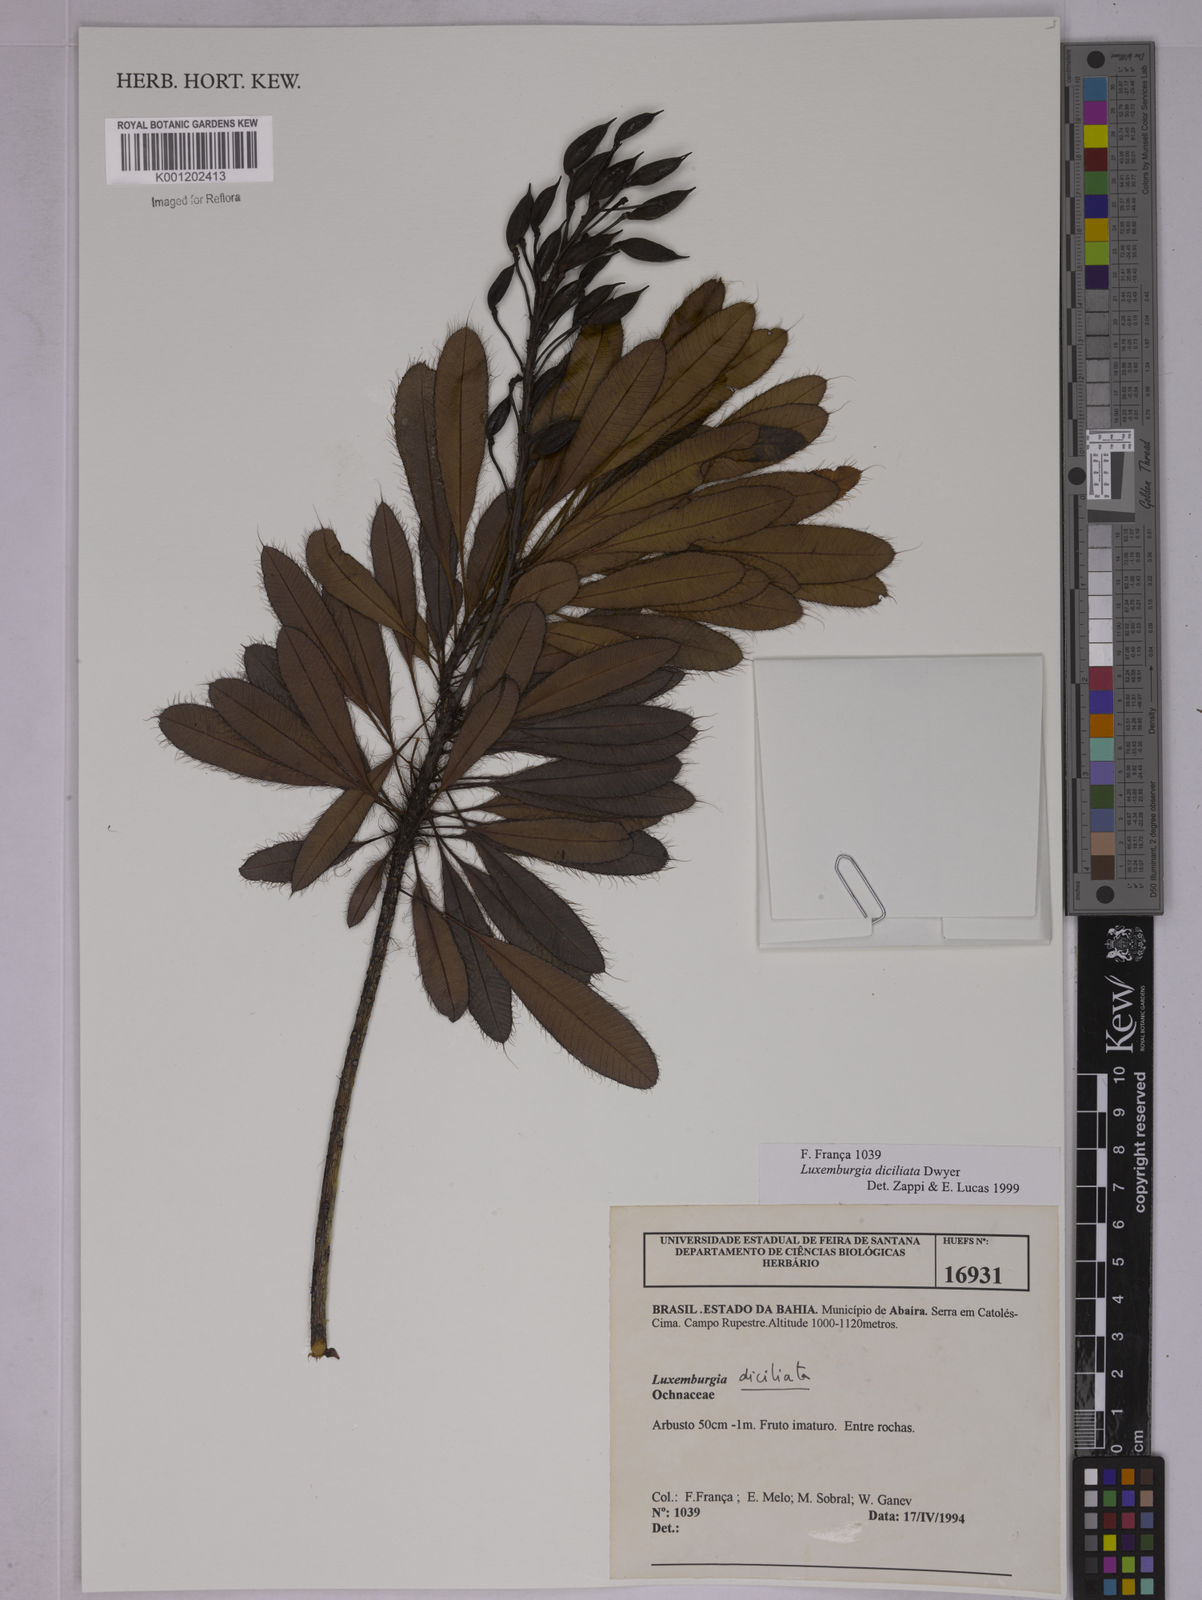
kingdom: Plantae
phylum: Tracheophyta
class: Magnoliopsida
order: Malpighiales
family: Ochnaceae
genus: Luxemburgia
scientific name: Luxemburgia diciliata
